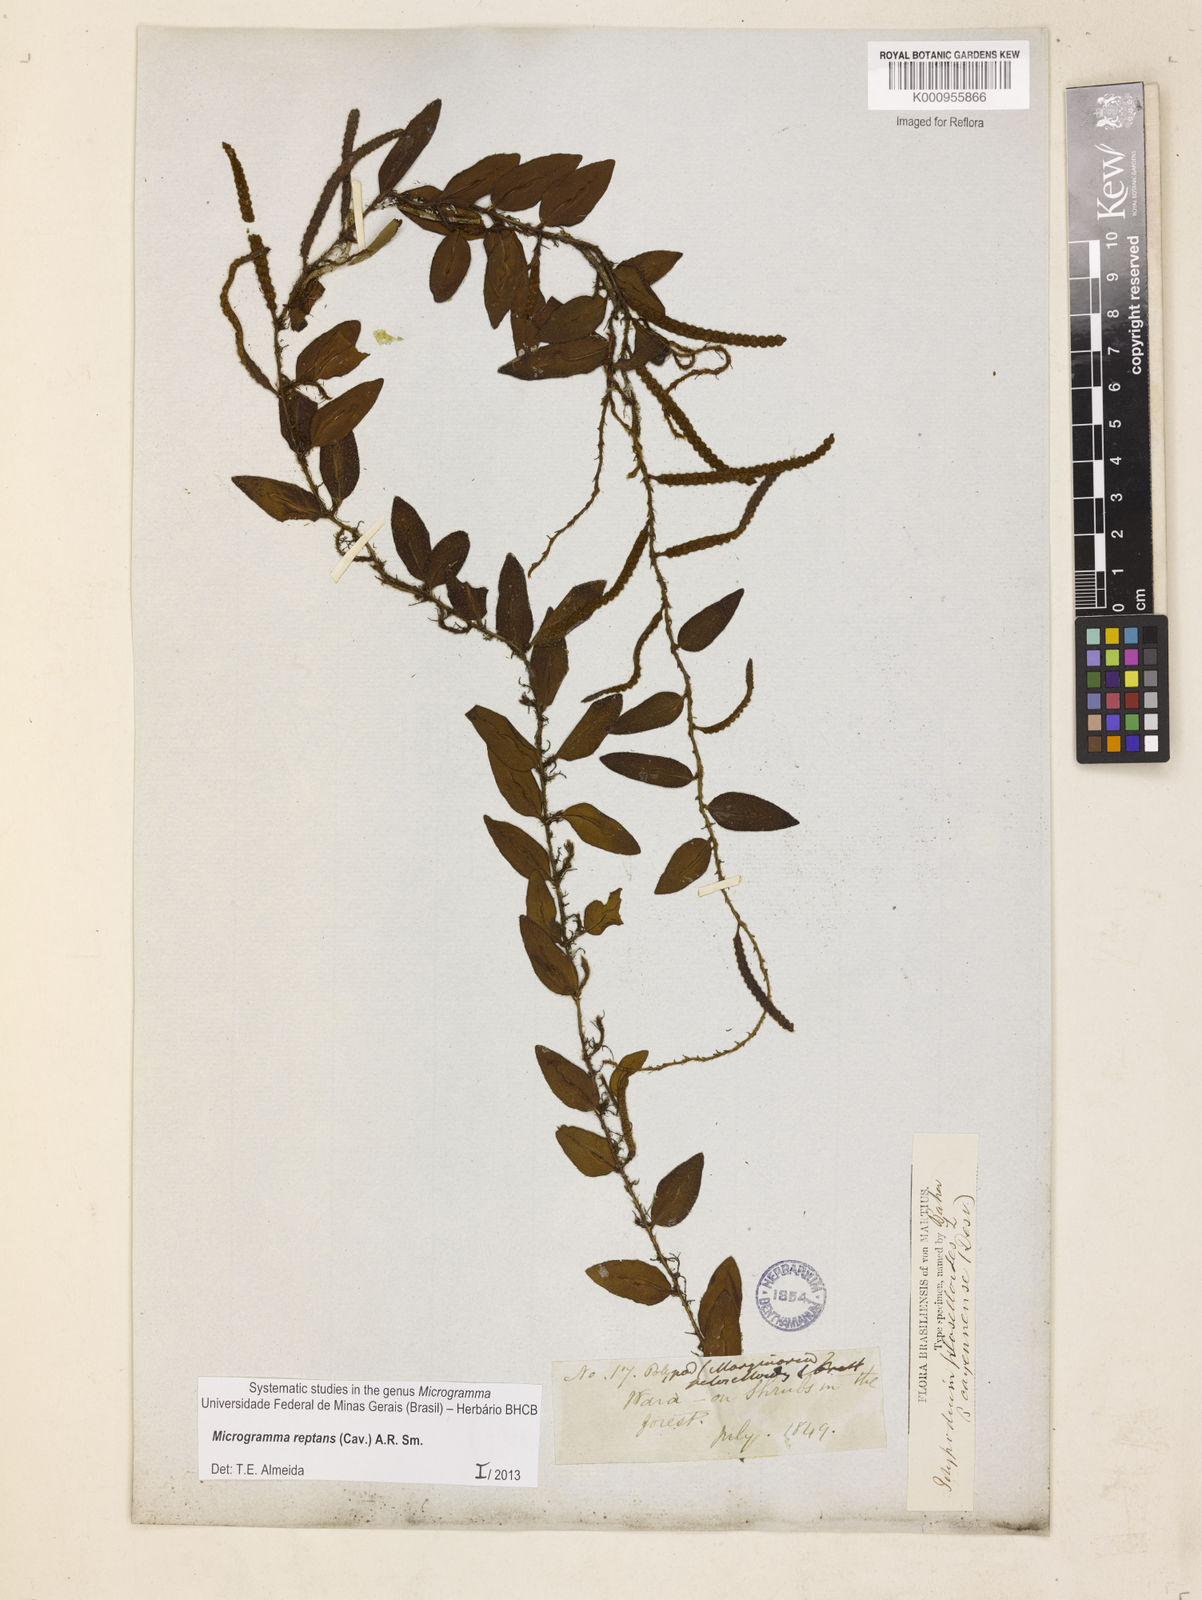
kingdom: Plantae
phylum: Tracheophyta
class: Polypodiopsida
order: Polypodiales
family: Polypodiaceae
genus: Microgramma
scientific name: Microgramma reptans
